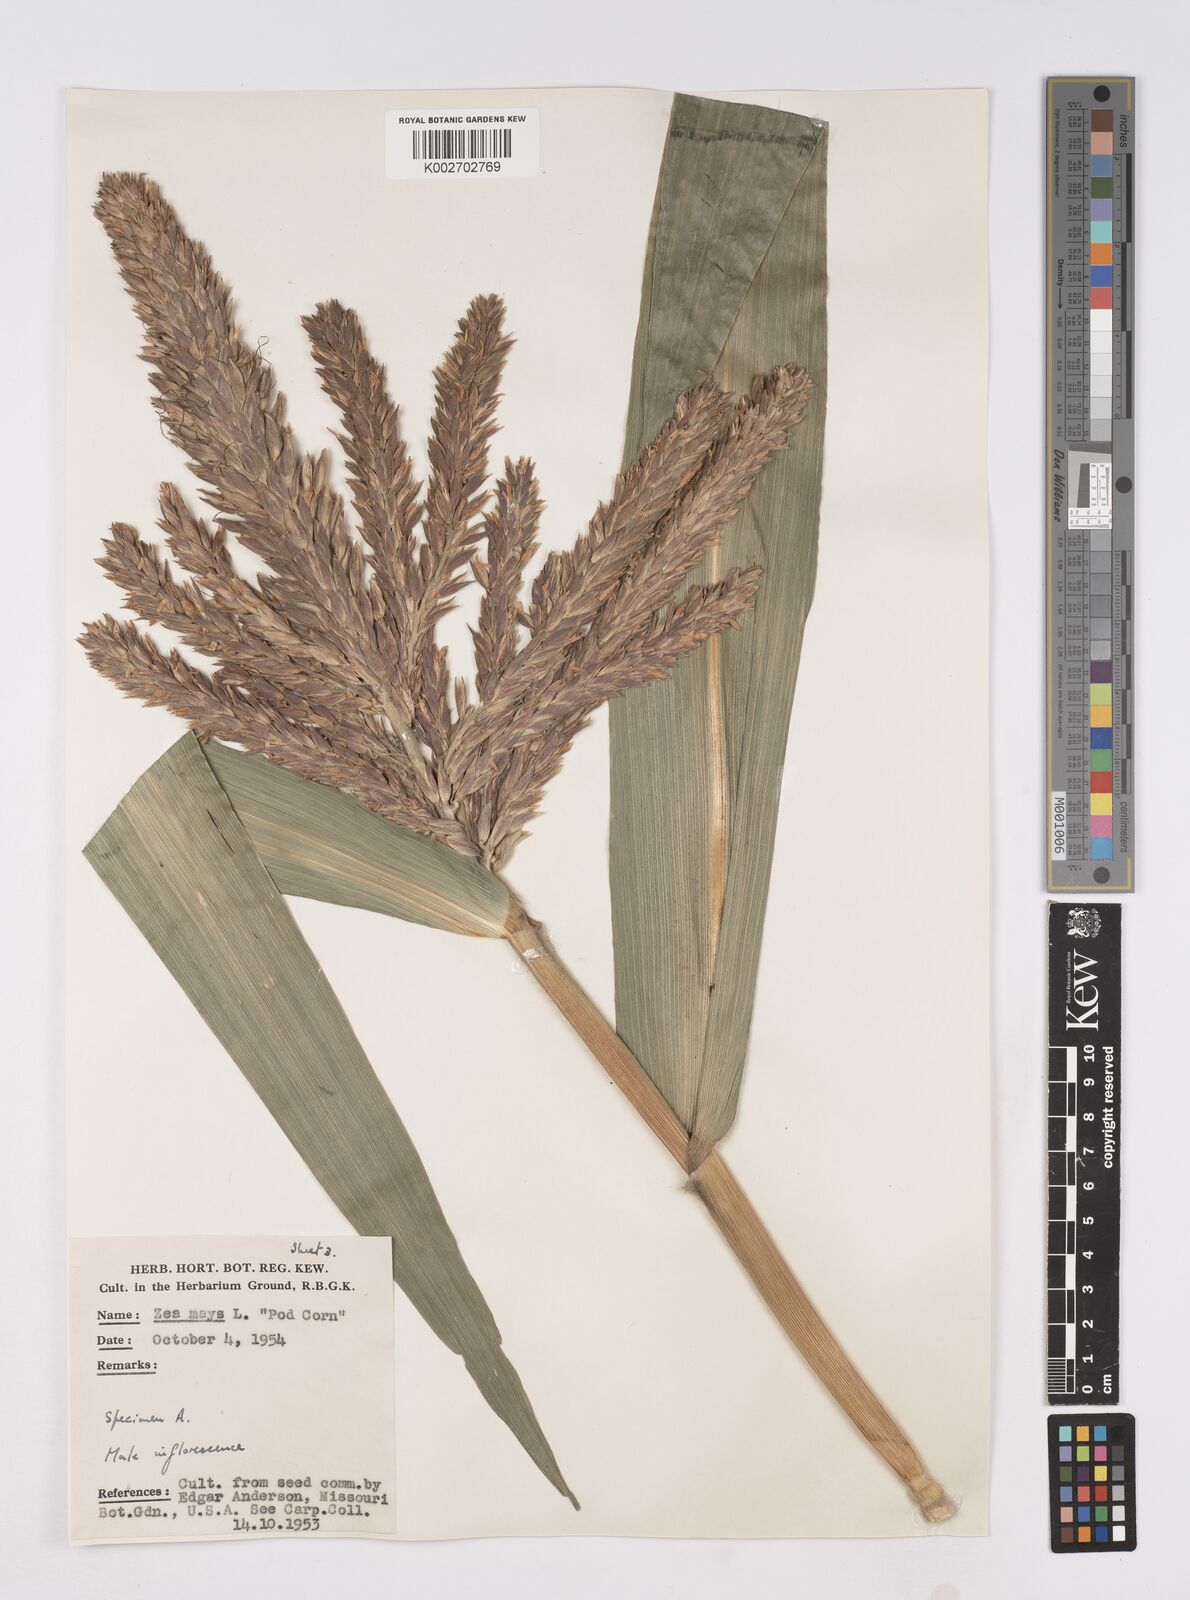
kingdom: Plantae
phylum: Tracheophyta
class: Liliopsida
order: Poales
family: Poaceae
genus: Zea
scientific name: Zea mays
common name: Maize
